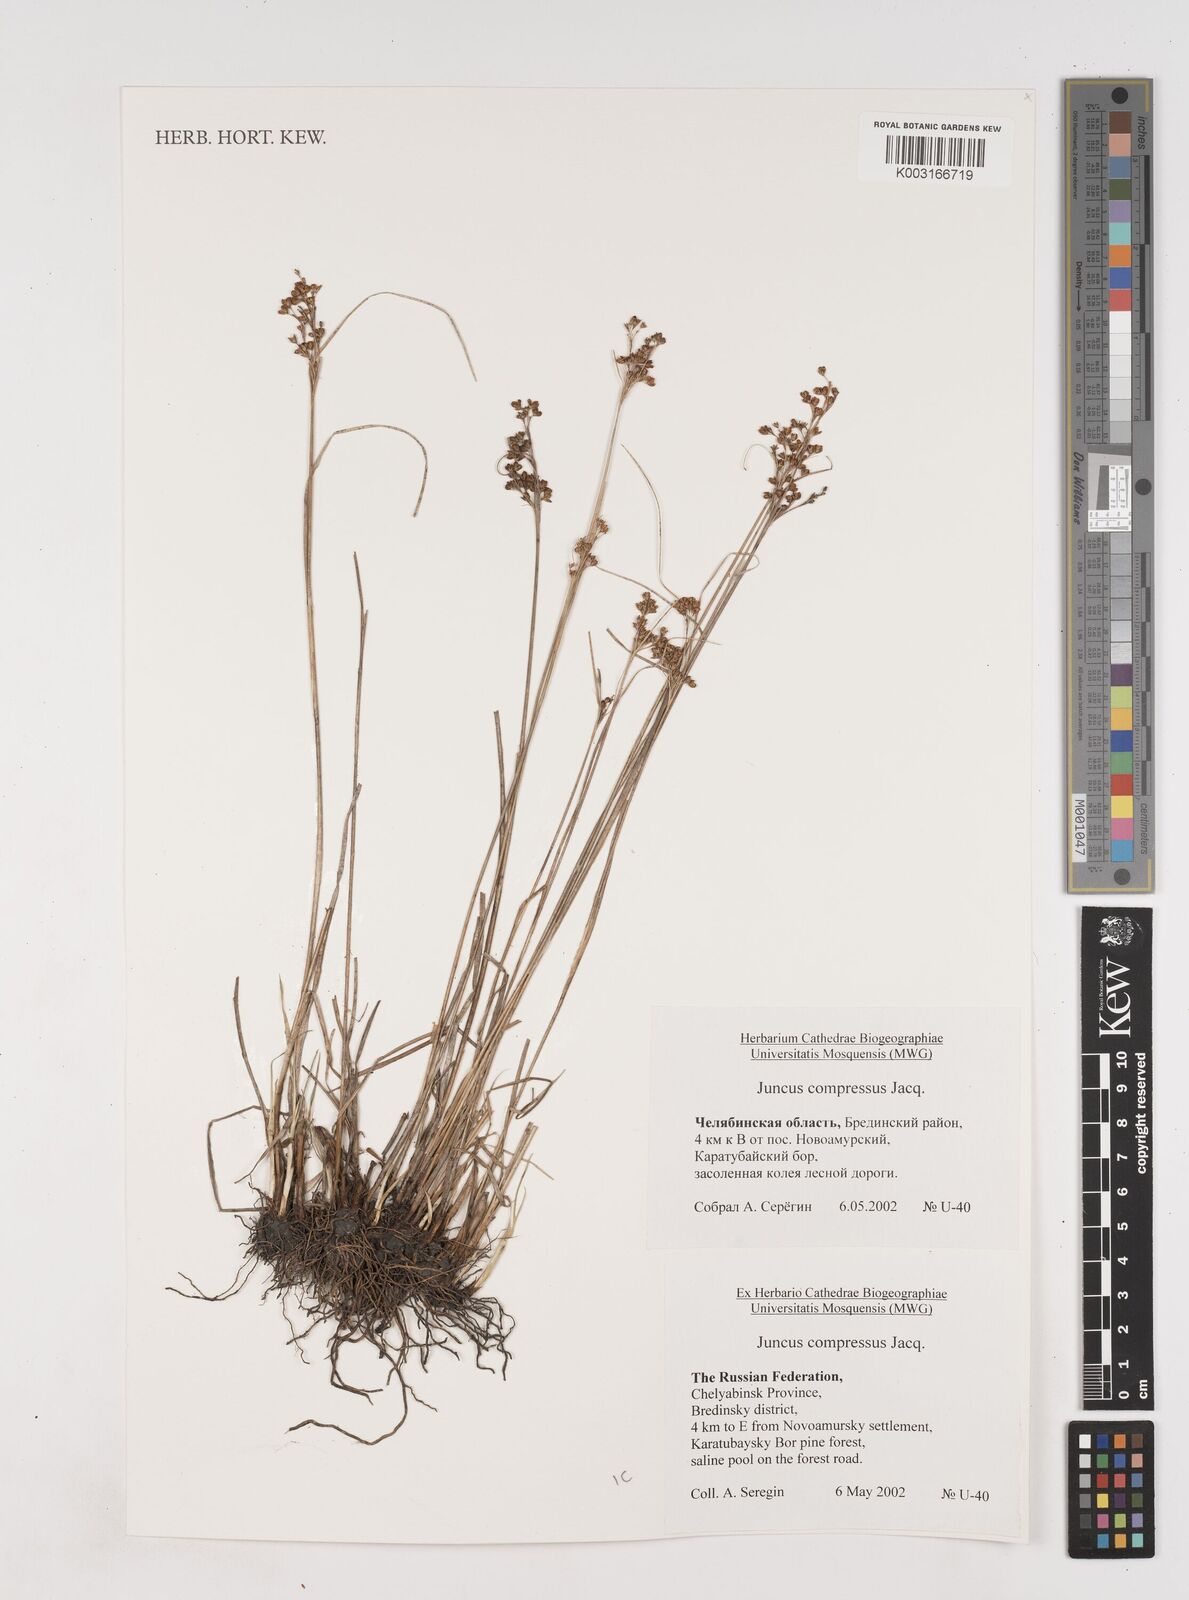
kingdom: Plantae
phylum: Tracheophyta
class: Liliopsida
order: Poales
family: Juncaceae
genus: Juncus
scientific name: Juncus
